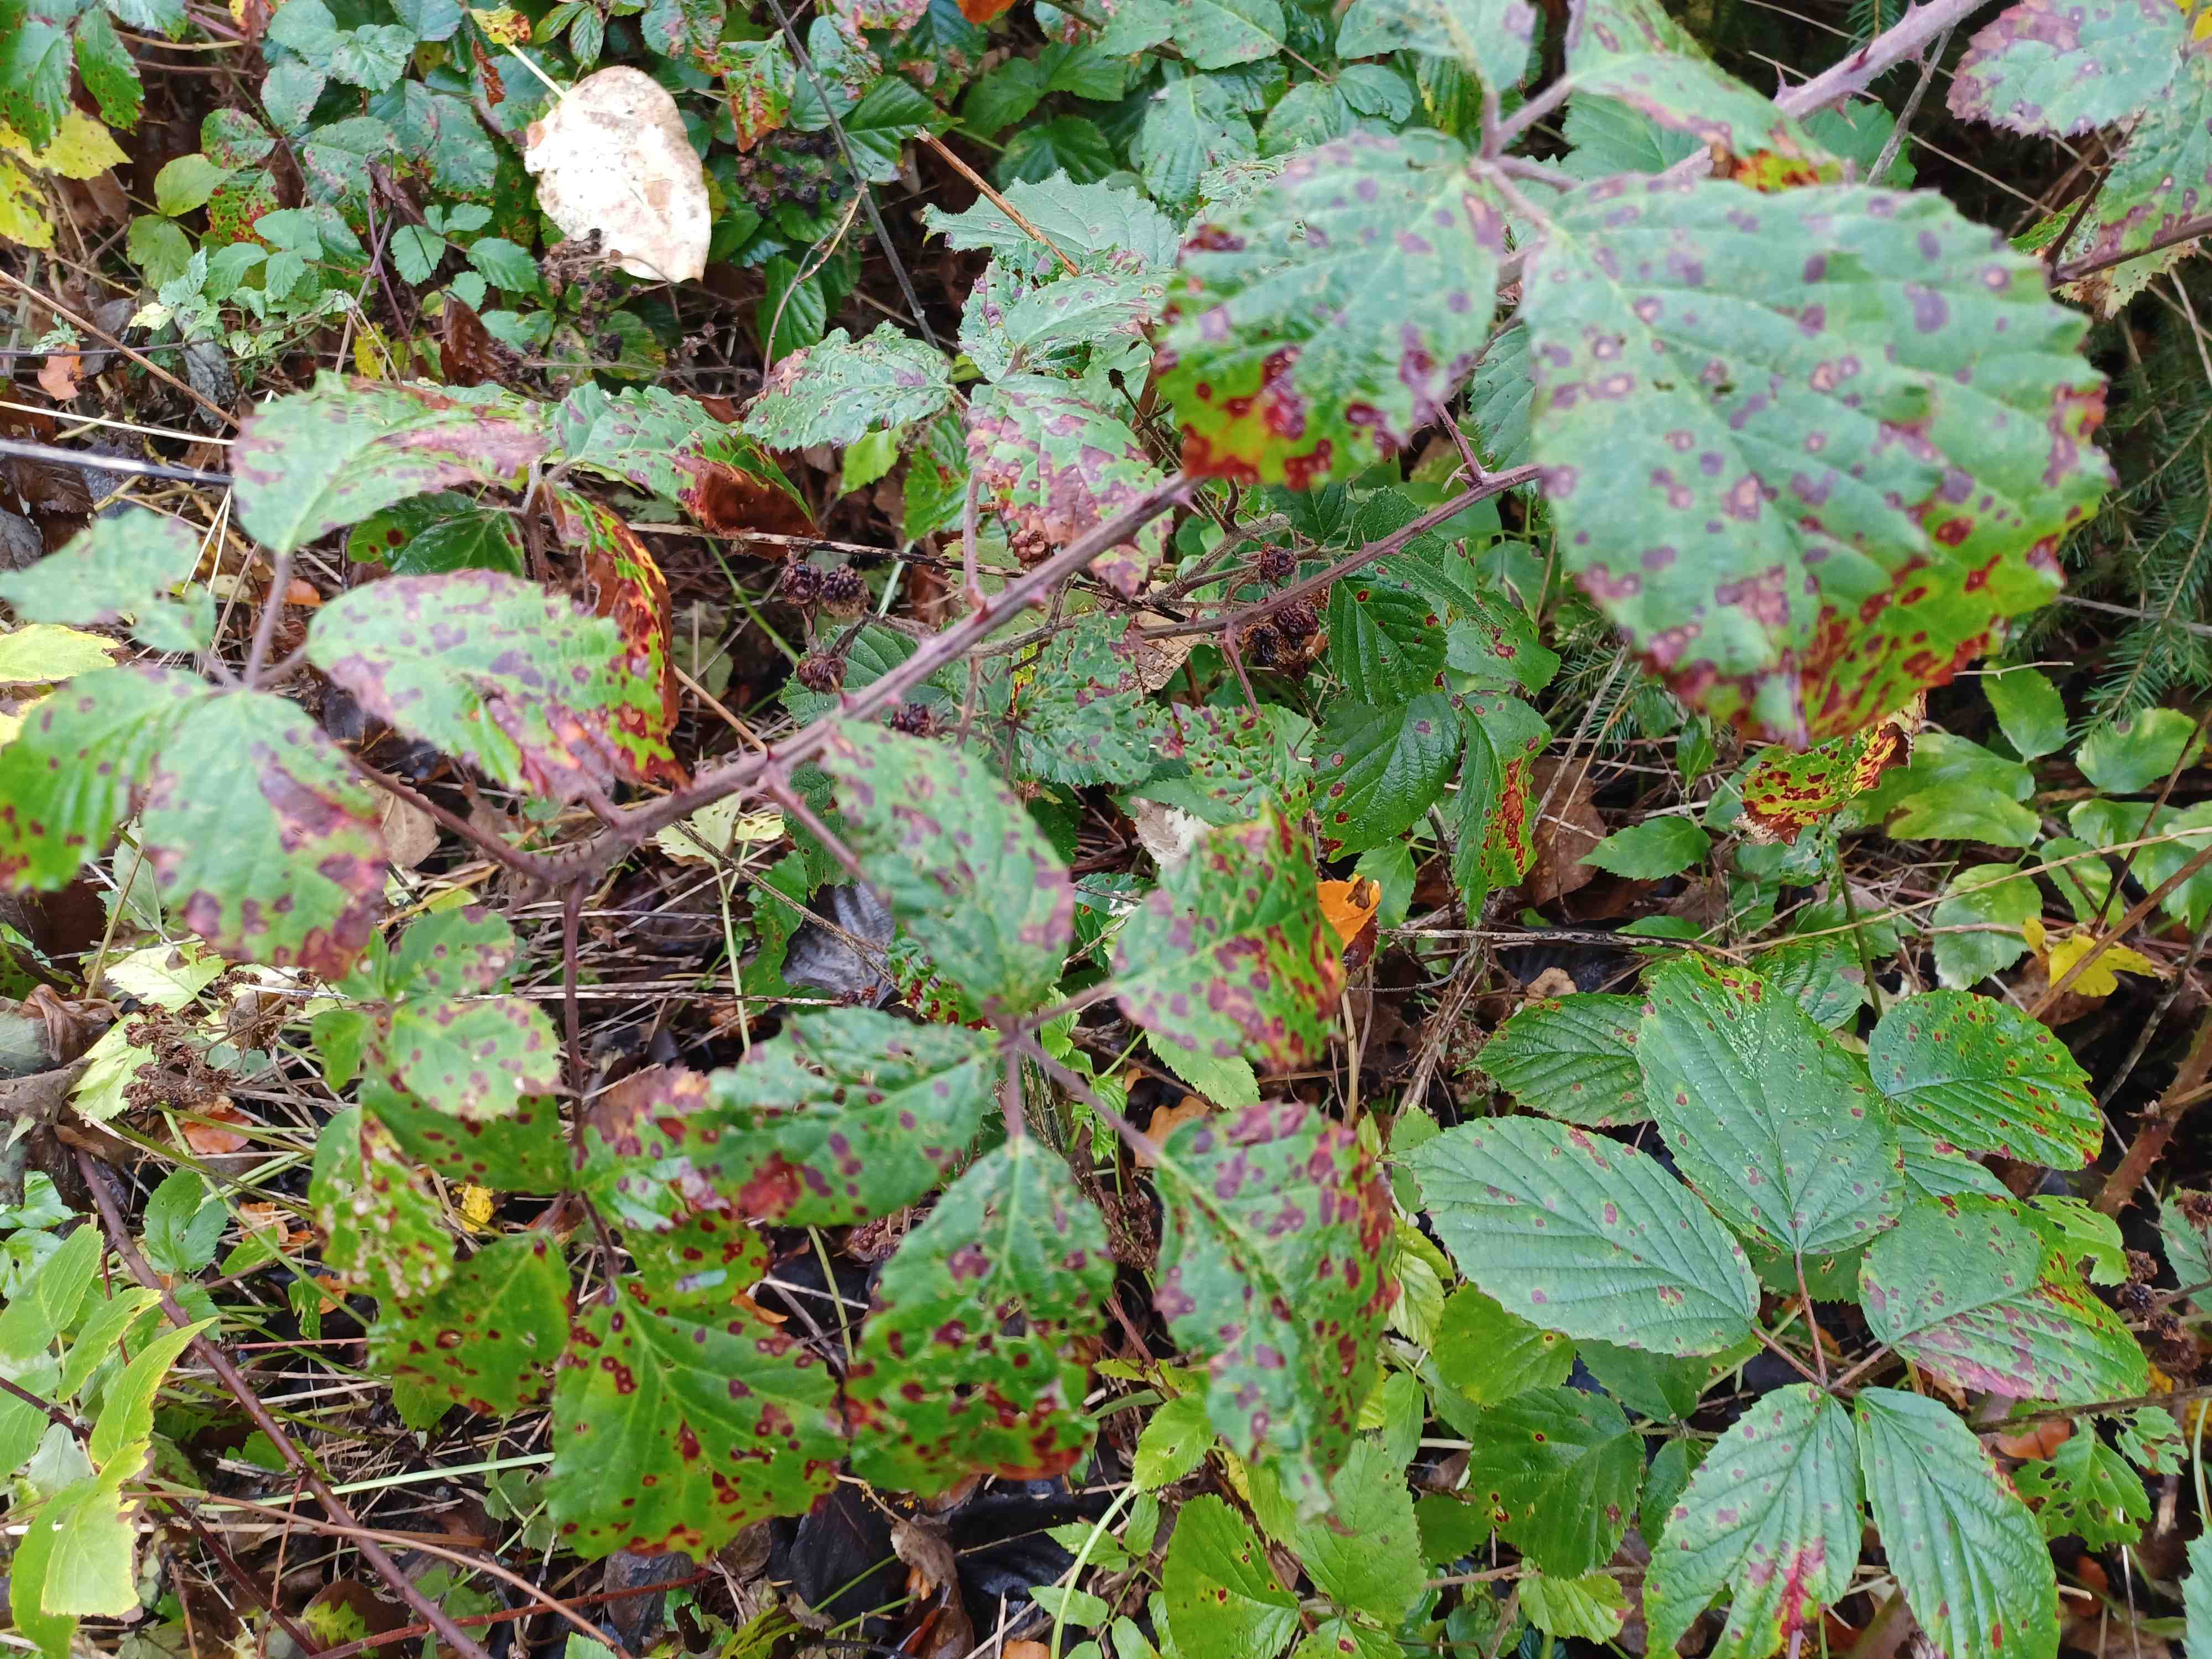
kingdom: Fungi
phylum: Basidiomycota
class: Pucciniomycetes
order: Pucciniales
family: Phragmidiaceae
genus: Phragmidium
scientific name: Phragmidium violaceum
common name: violet flercellerust
